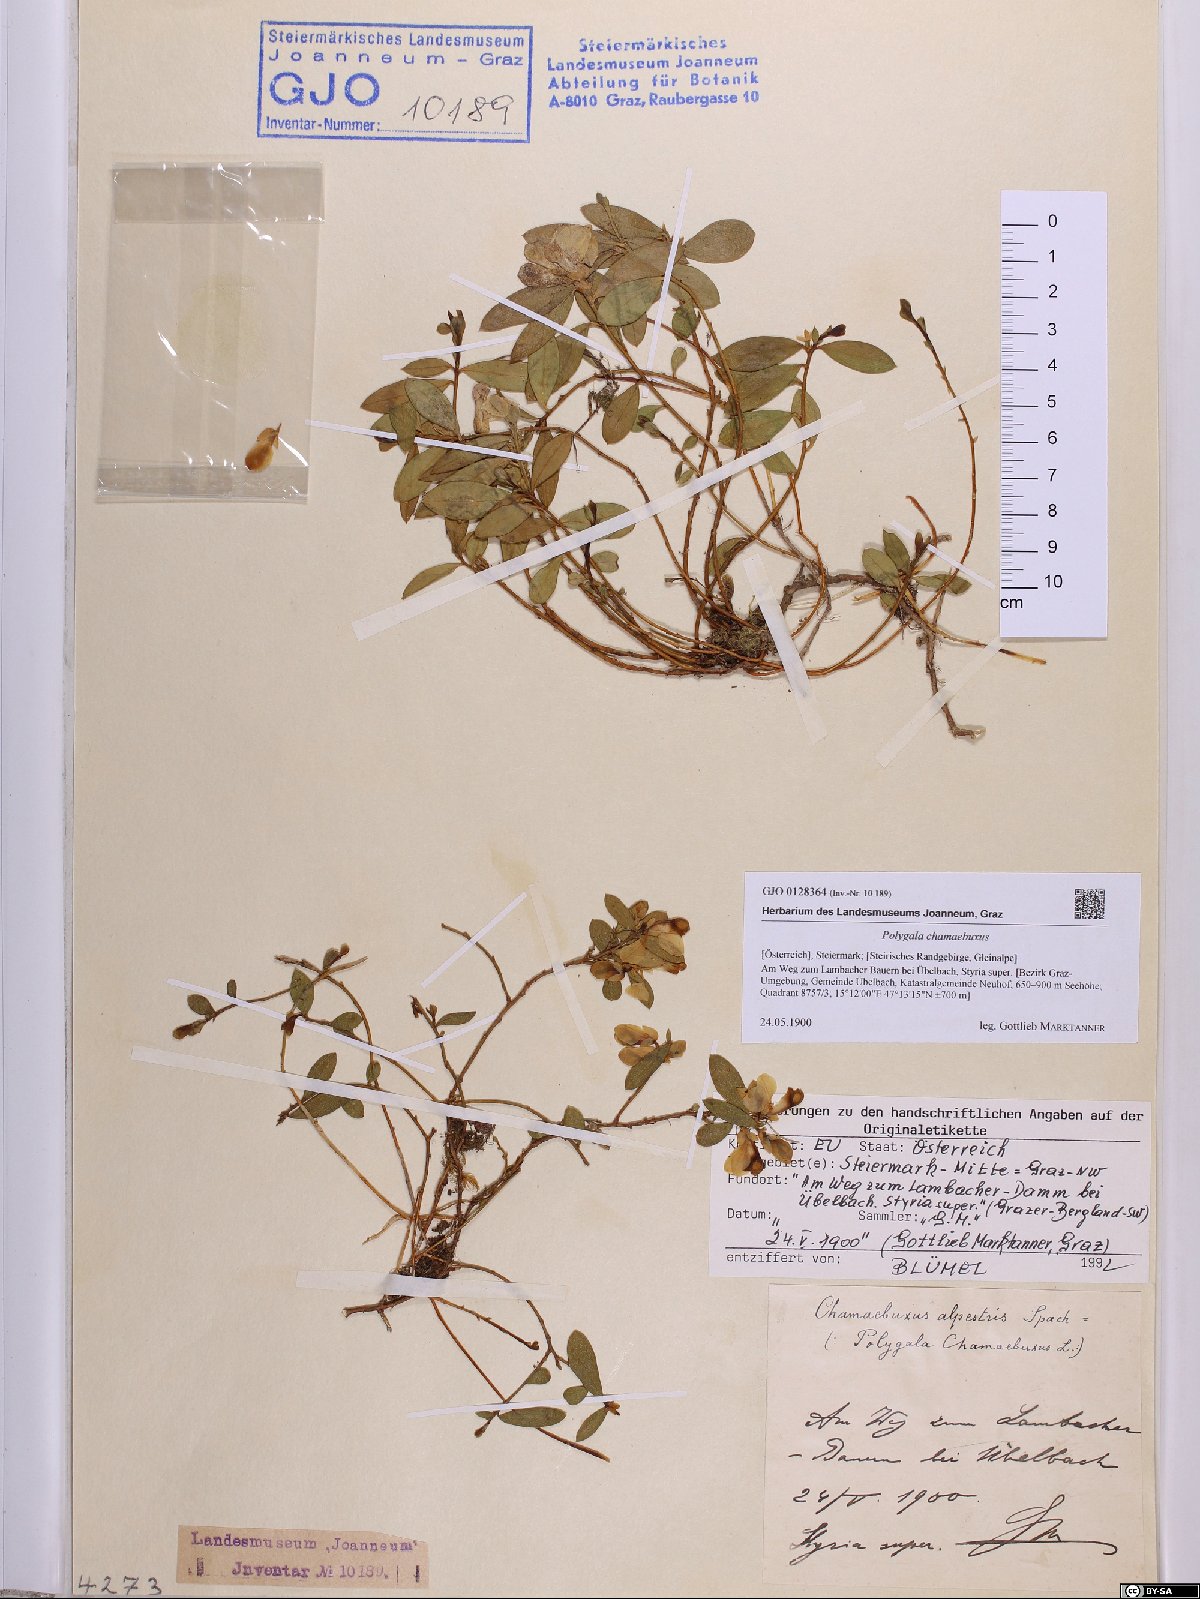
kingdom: Plantae
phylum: Tracheophyta
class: Magnoliopsida
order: Fabales
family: Polygalaceae
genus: Polygaloides
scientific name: Polygaloides chamaebuxus
